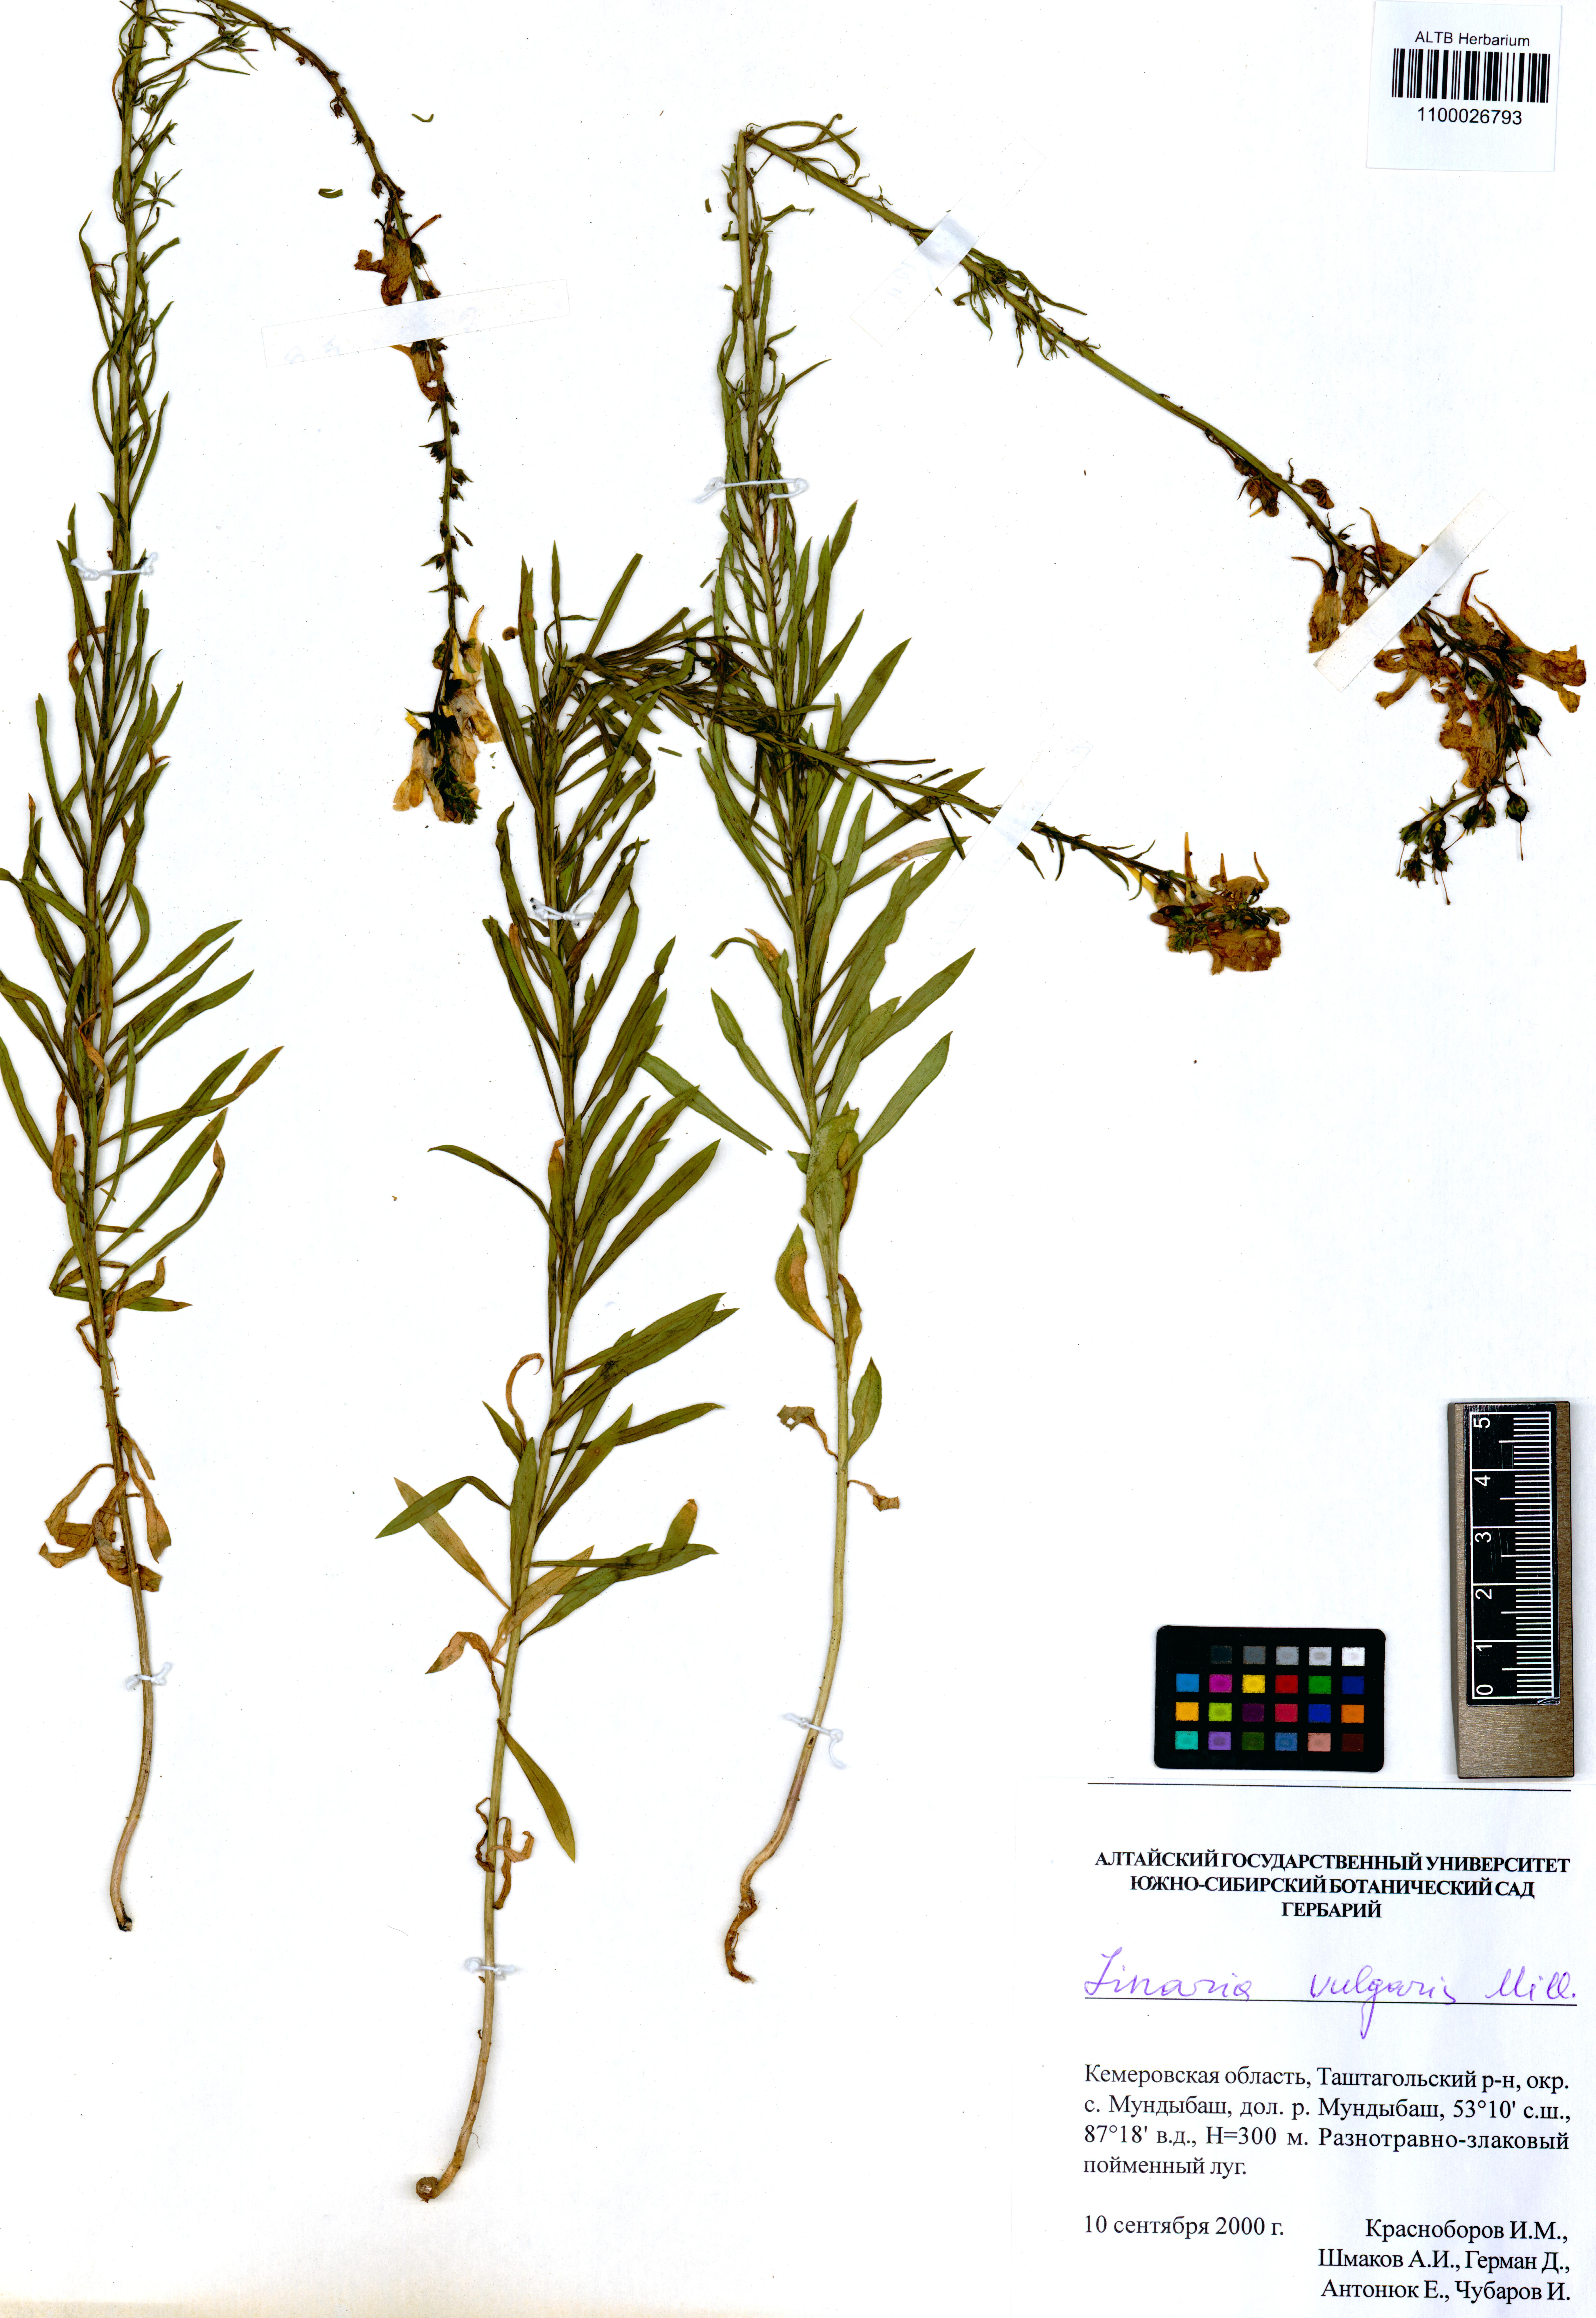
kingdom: Plantae
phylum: Tracheophyta
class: Magnoliopsida
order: Lamiales
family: Plantaginaceae
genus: Linaria
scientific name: Linaria vulgaris
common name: Butter and eggs
